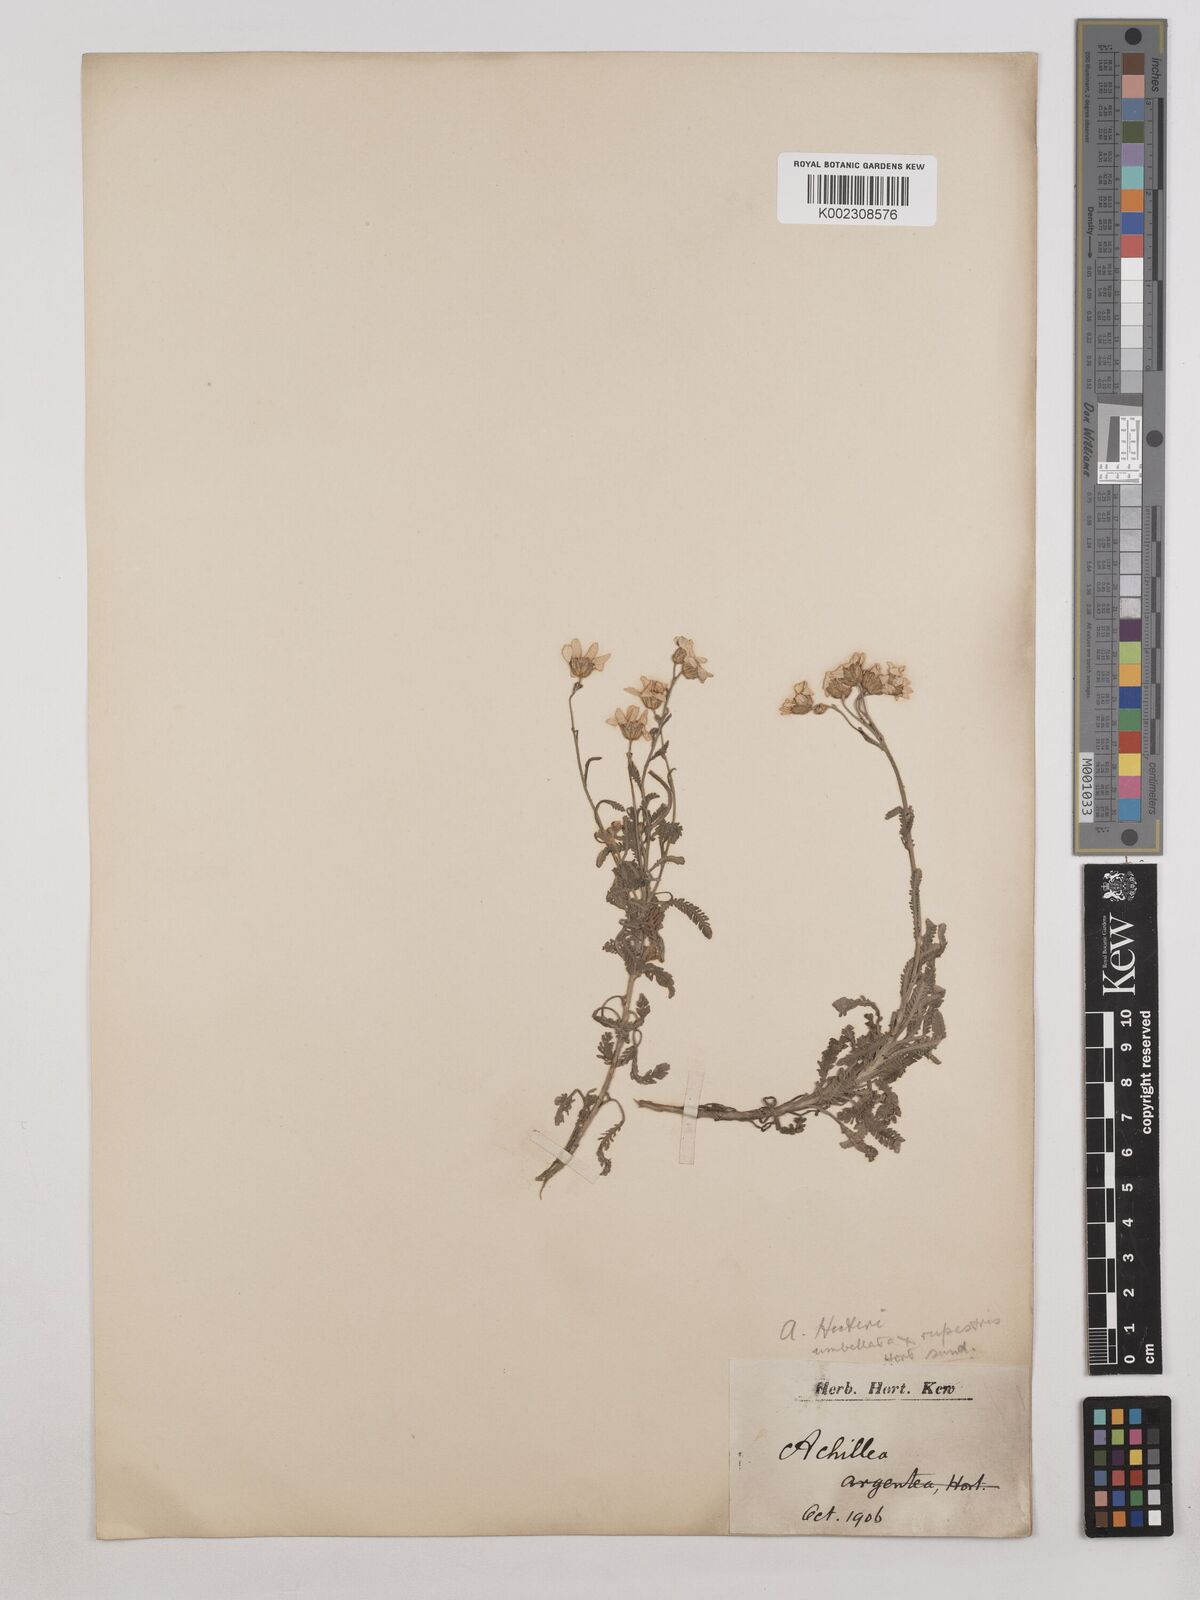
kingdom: Plantae
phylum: Tracheophyta
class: Magnoliopsida
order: Asterales
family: Asteraceae
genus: Achillea
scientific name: Achillea huteri
